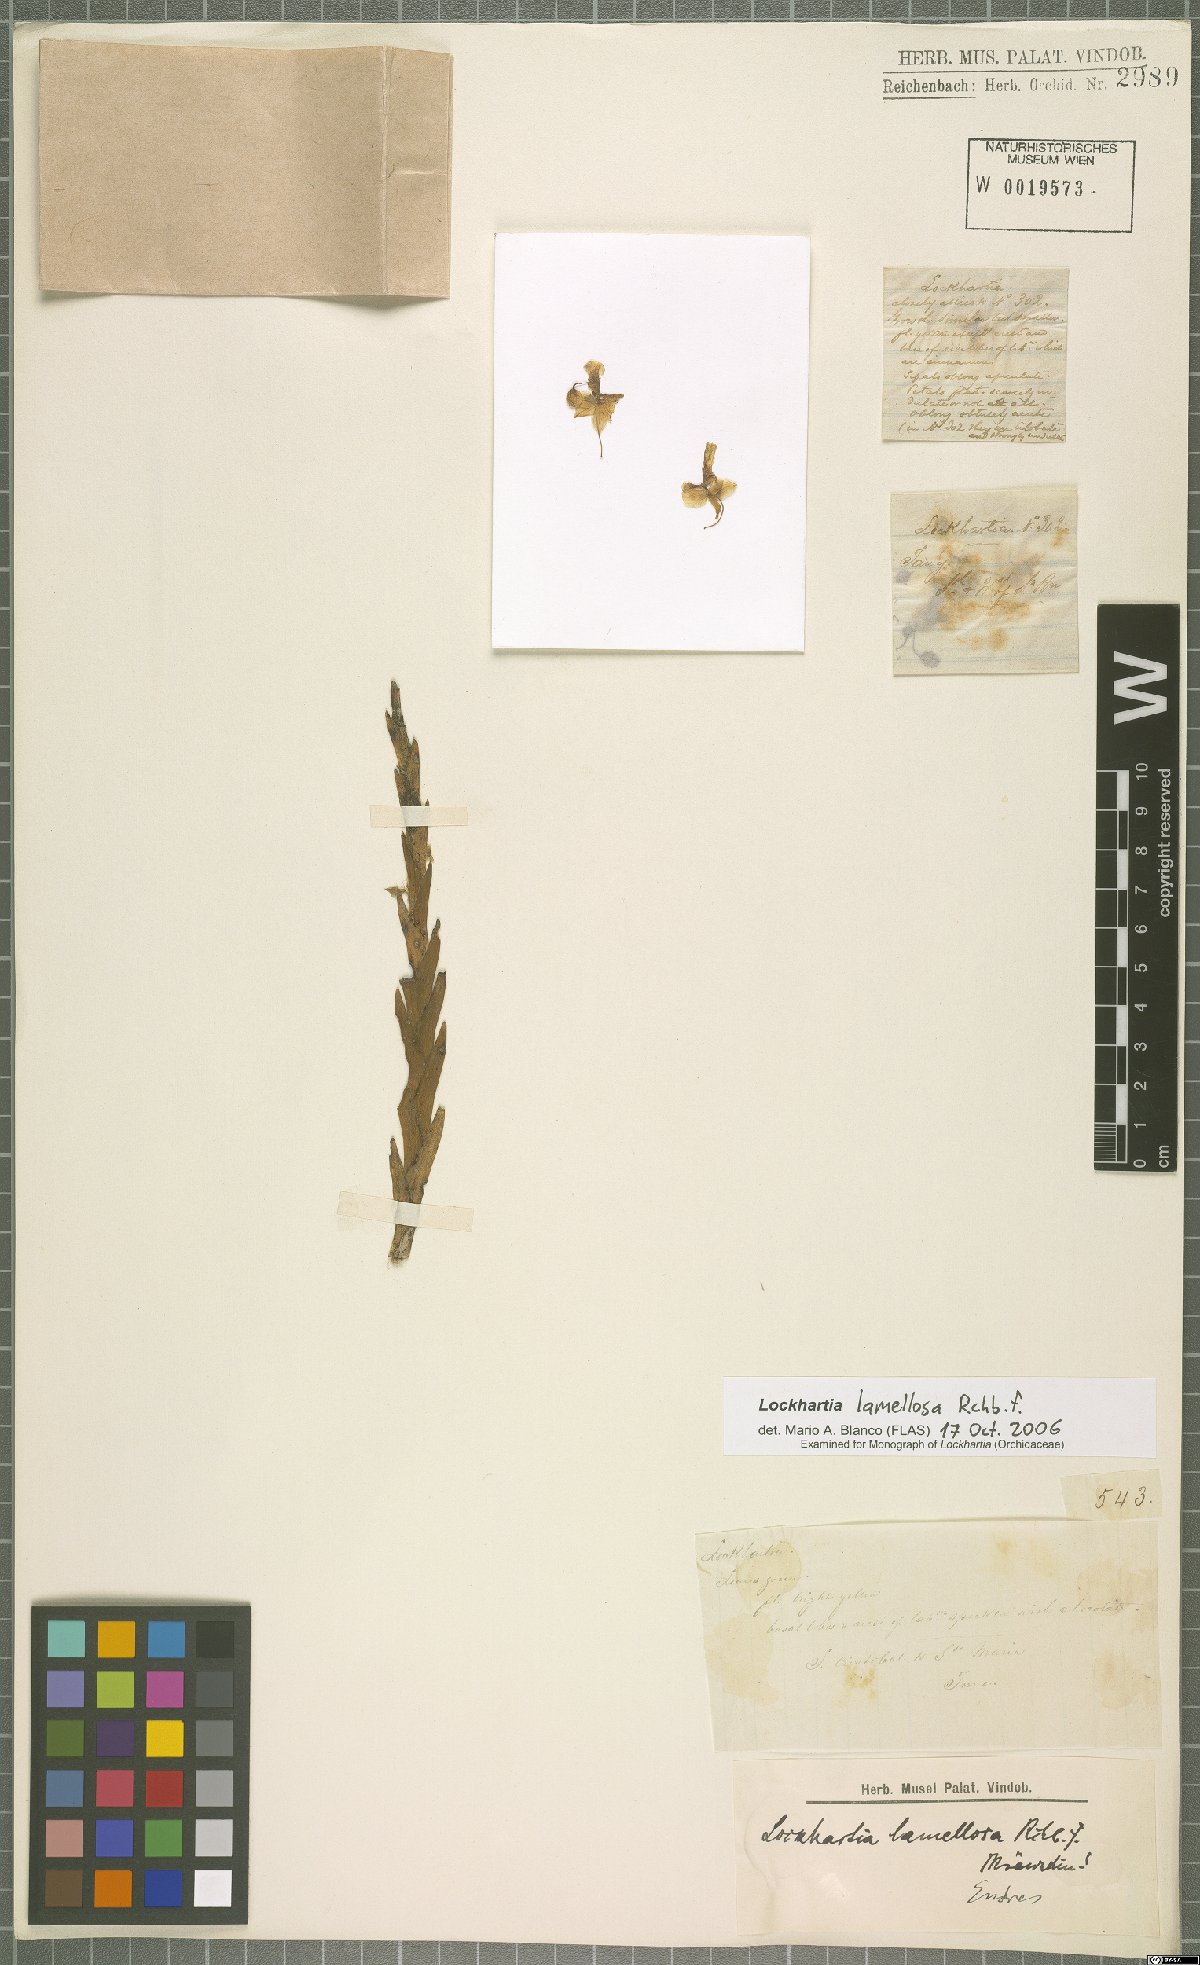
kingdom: Plantae
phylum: Tracheophyta
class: Liliopsida
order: Asparagales
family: Orchidaceae
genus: Lockhartia
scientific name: Lockhartia oerstedii
